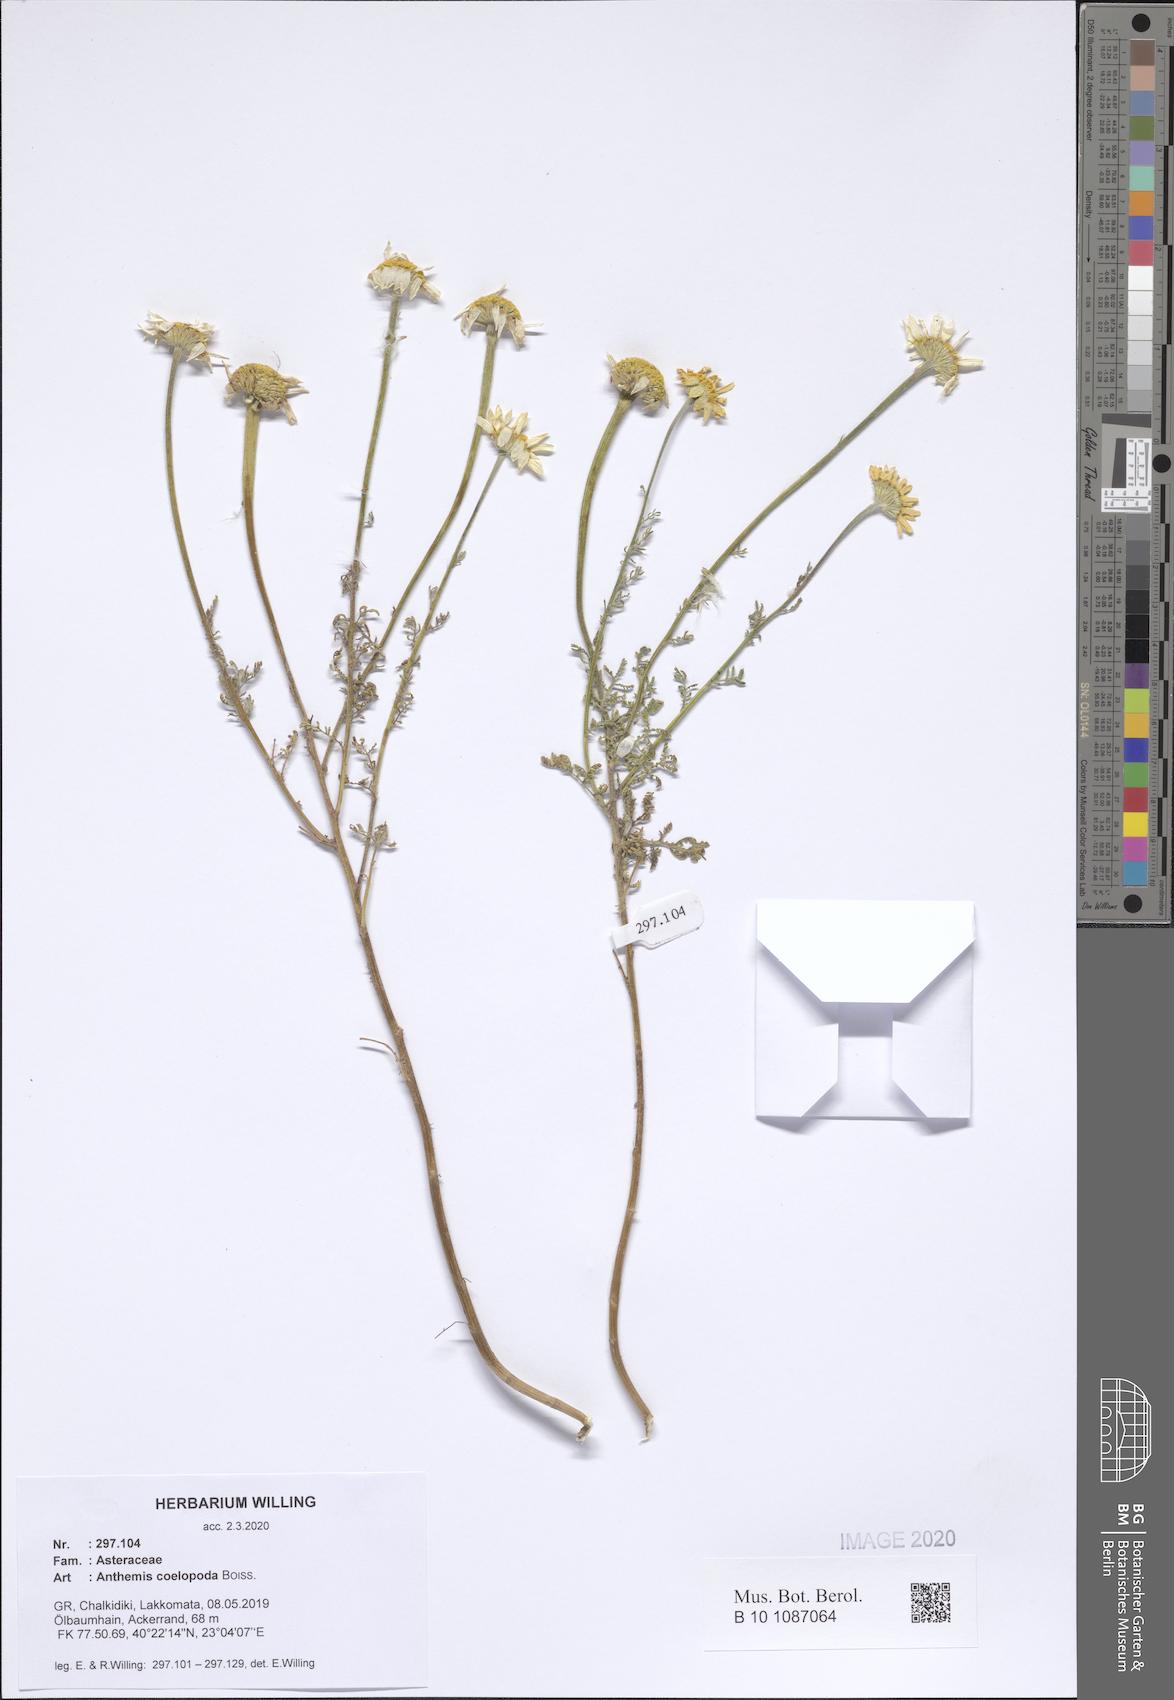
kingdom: Plantae
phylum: Tracheophyta
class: Magnoliopsida
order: Asterales
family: Asteraceae
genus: Cota
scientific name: Cota coelopoda
